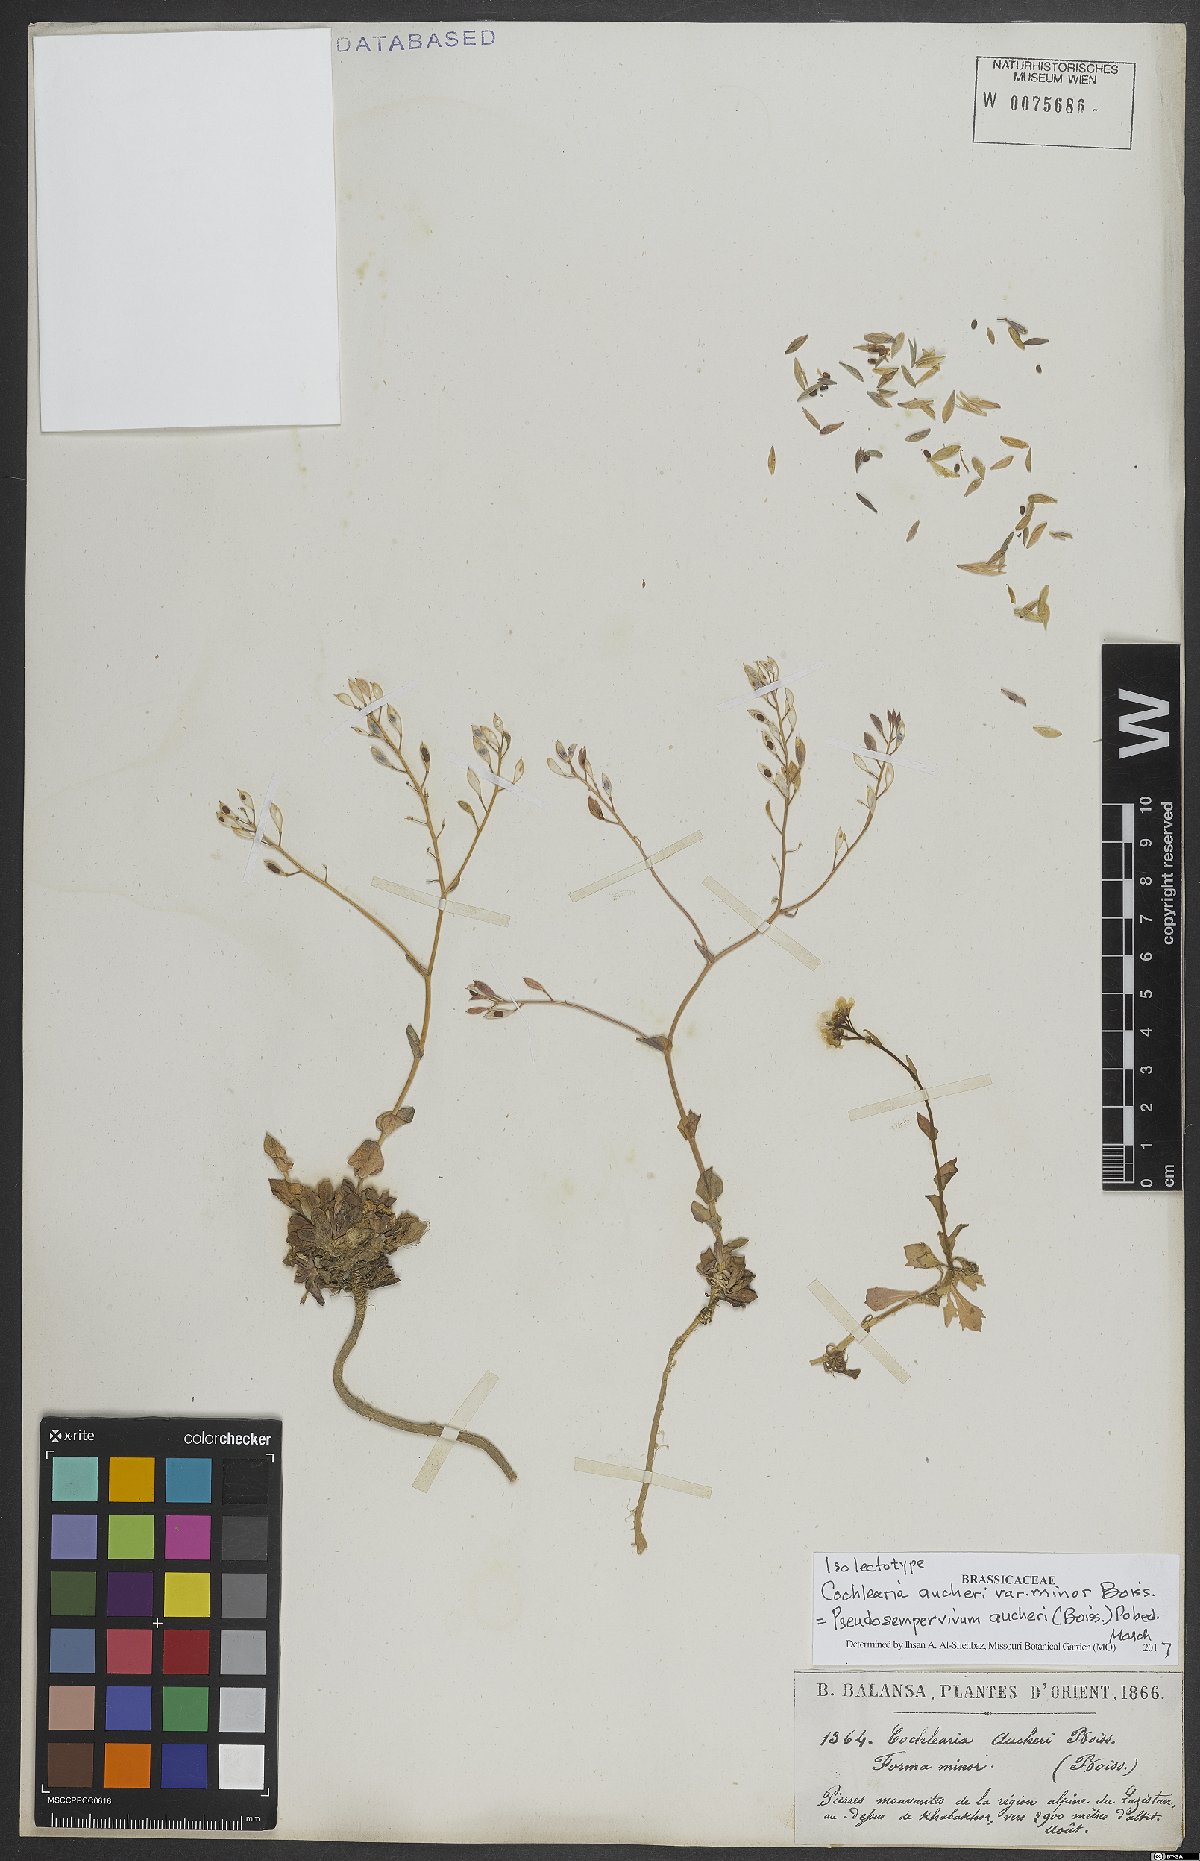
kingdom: Plantae
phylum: Tracheophyta
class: Magnoliopsida
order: Brassicales
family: Brassicaceae
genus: Pseudosempervivum
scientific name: Pseudosempervivum aucheri
